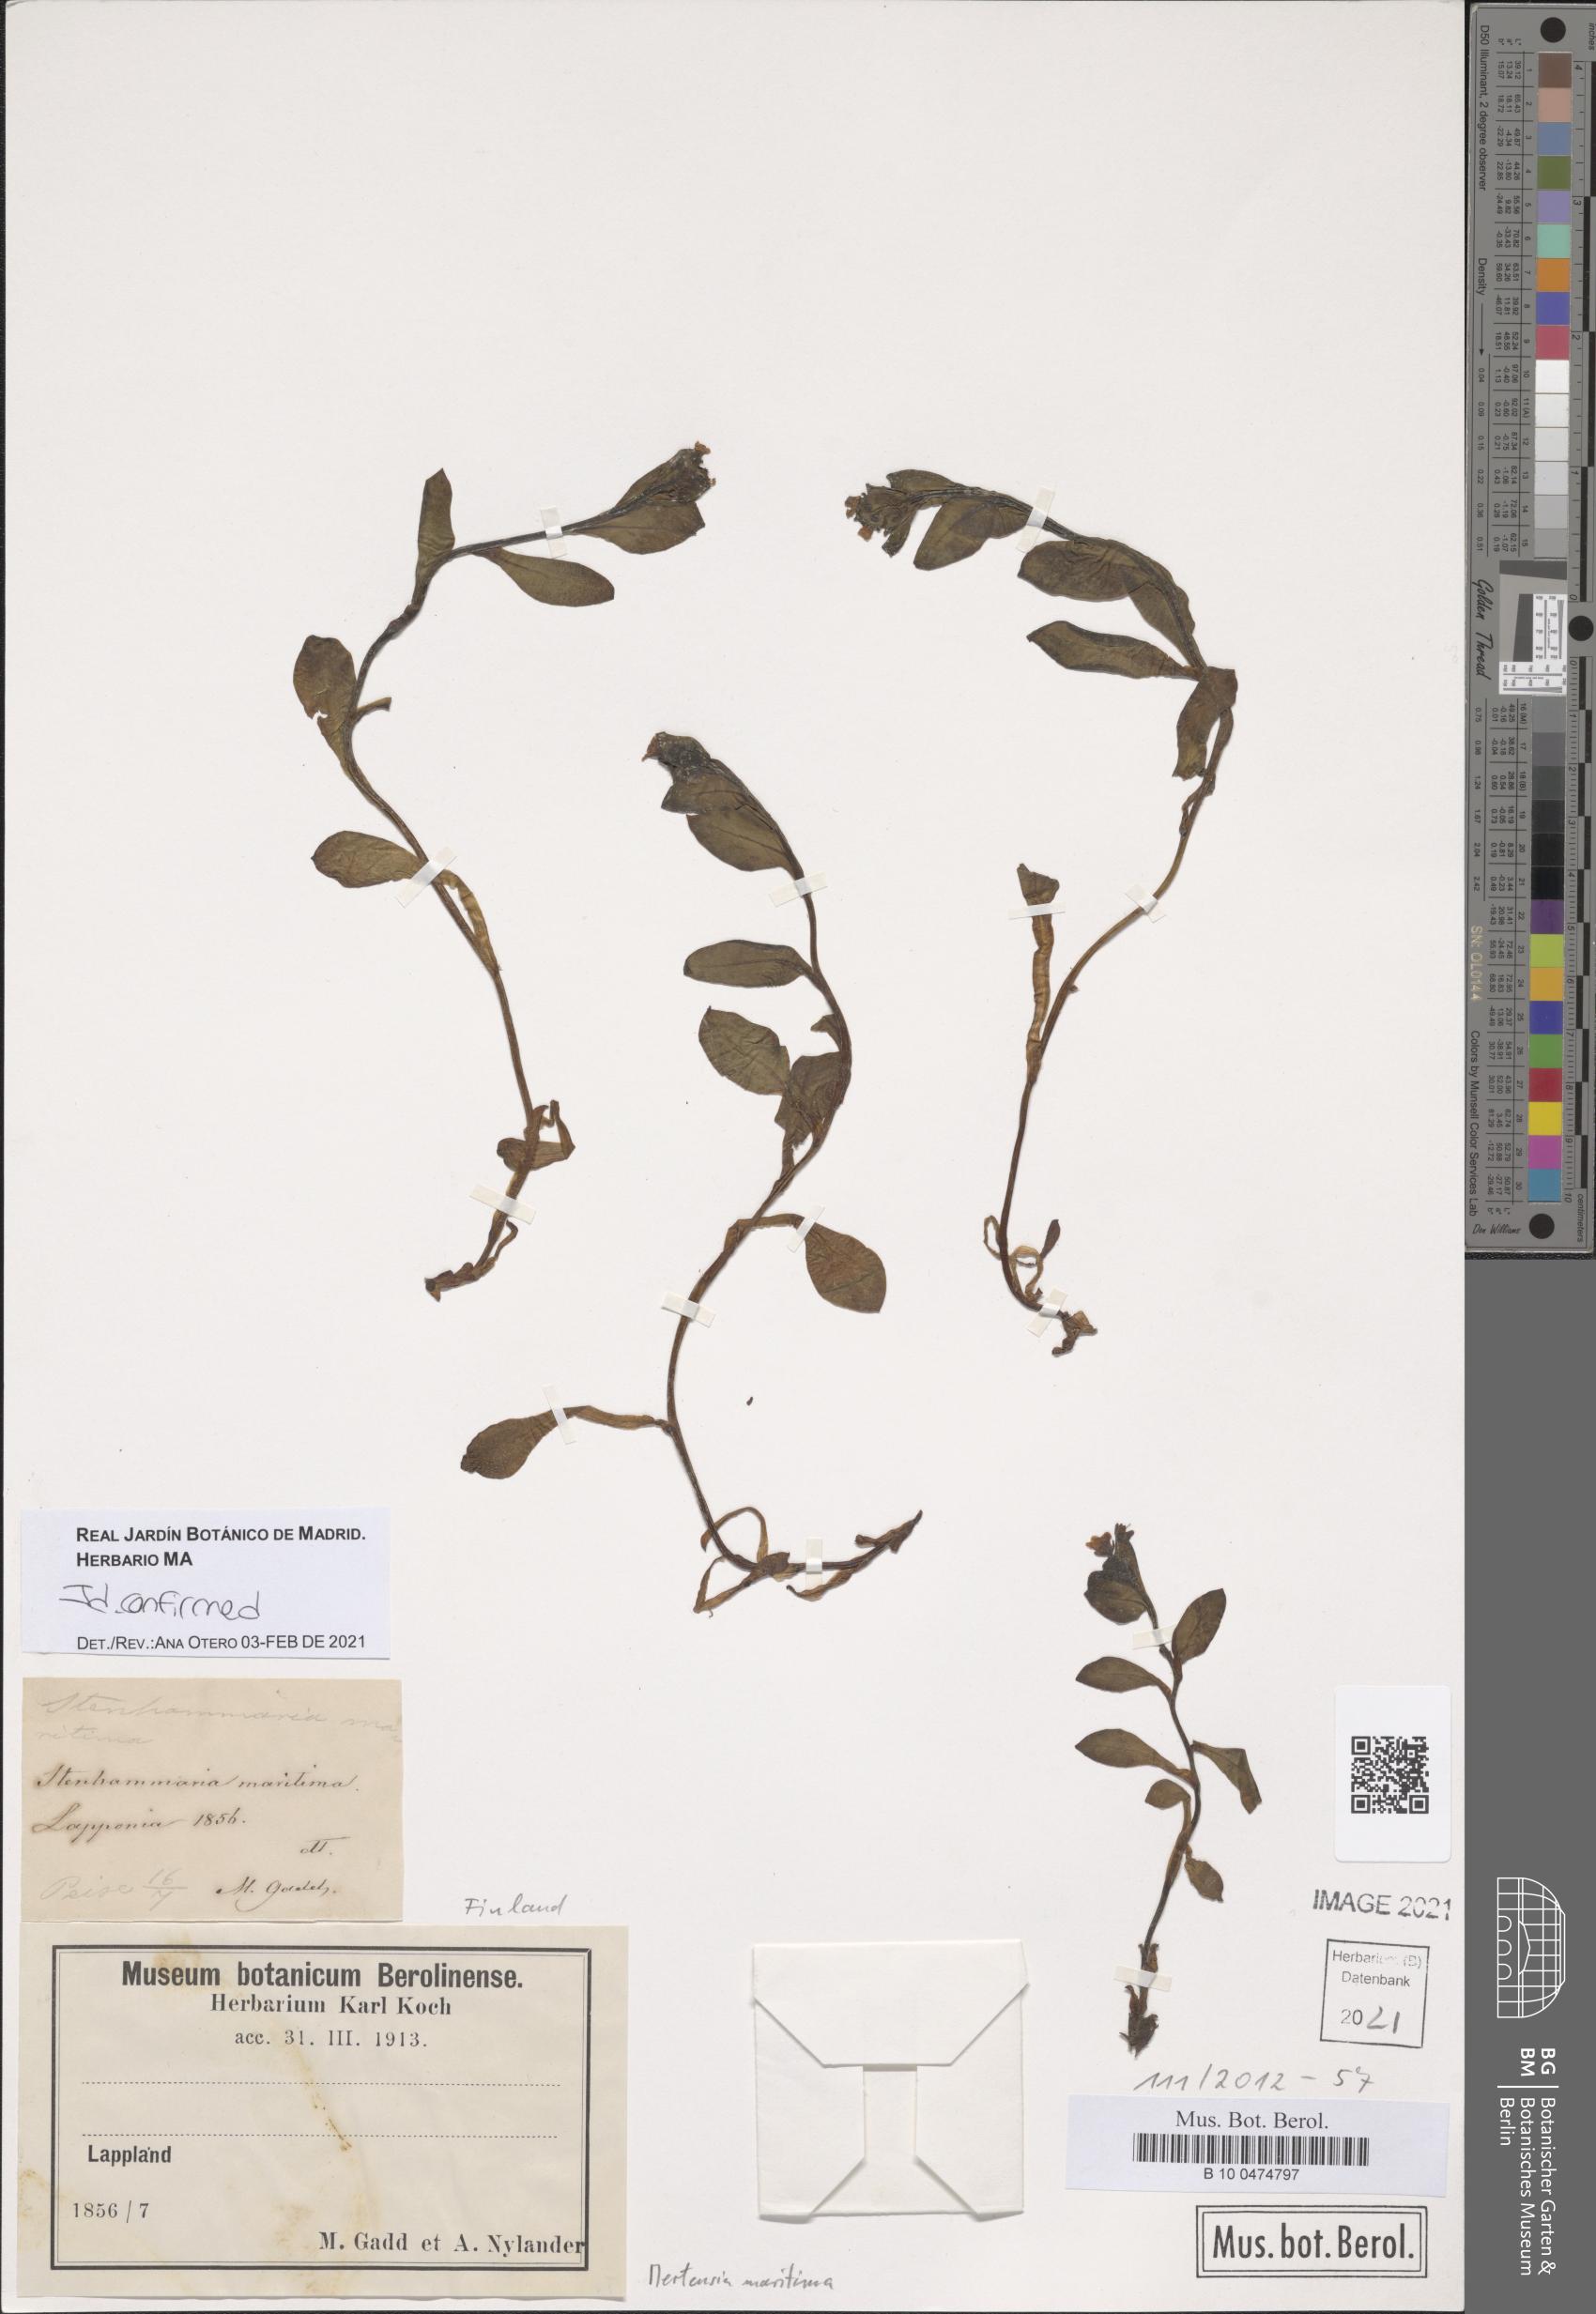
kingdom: Plantae
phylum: Tracheophyta
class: Magnoliopsida
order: Boraginales
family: Boraginaceae
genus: Mertensia
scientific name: Mertensia maritima
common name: Oysterplant
